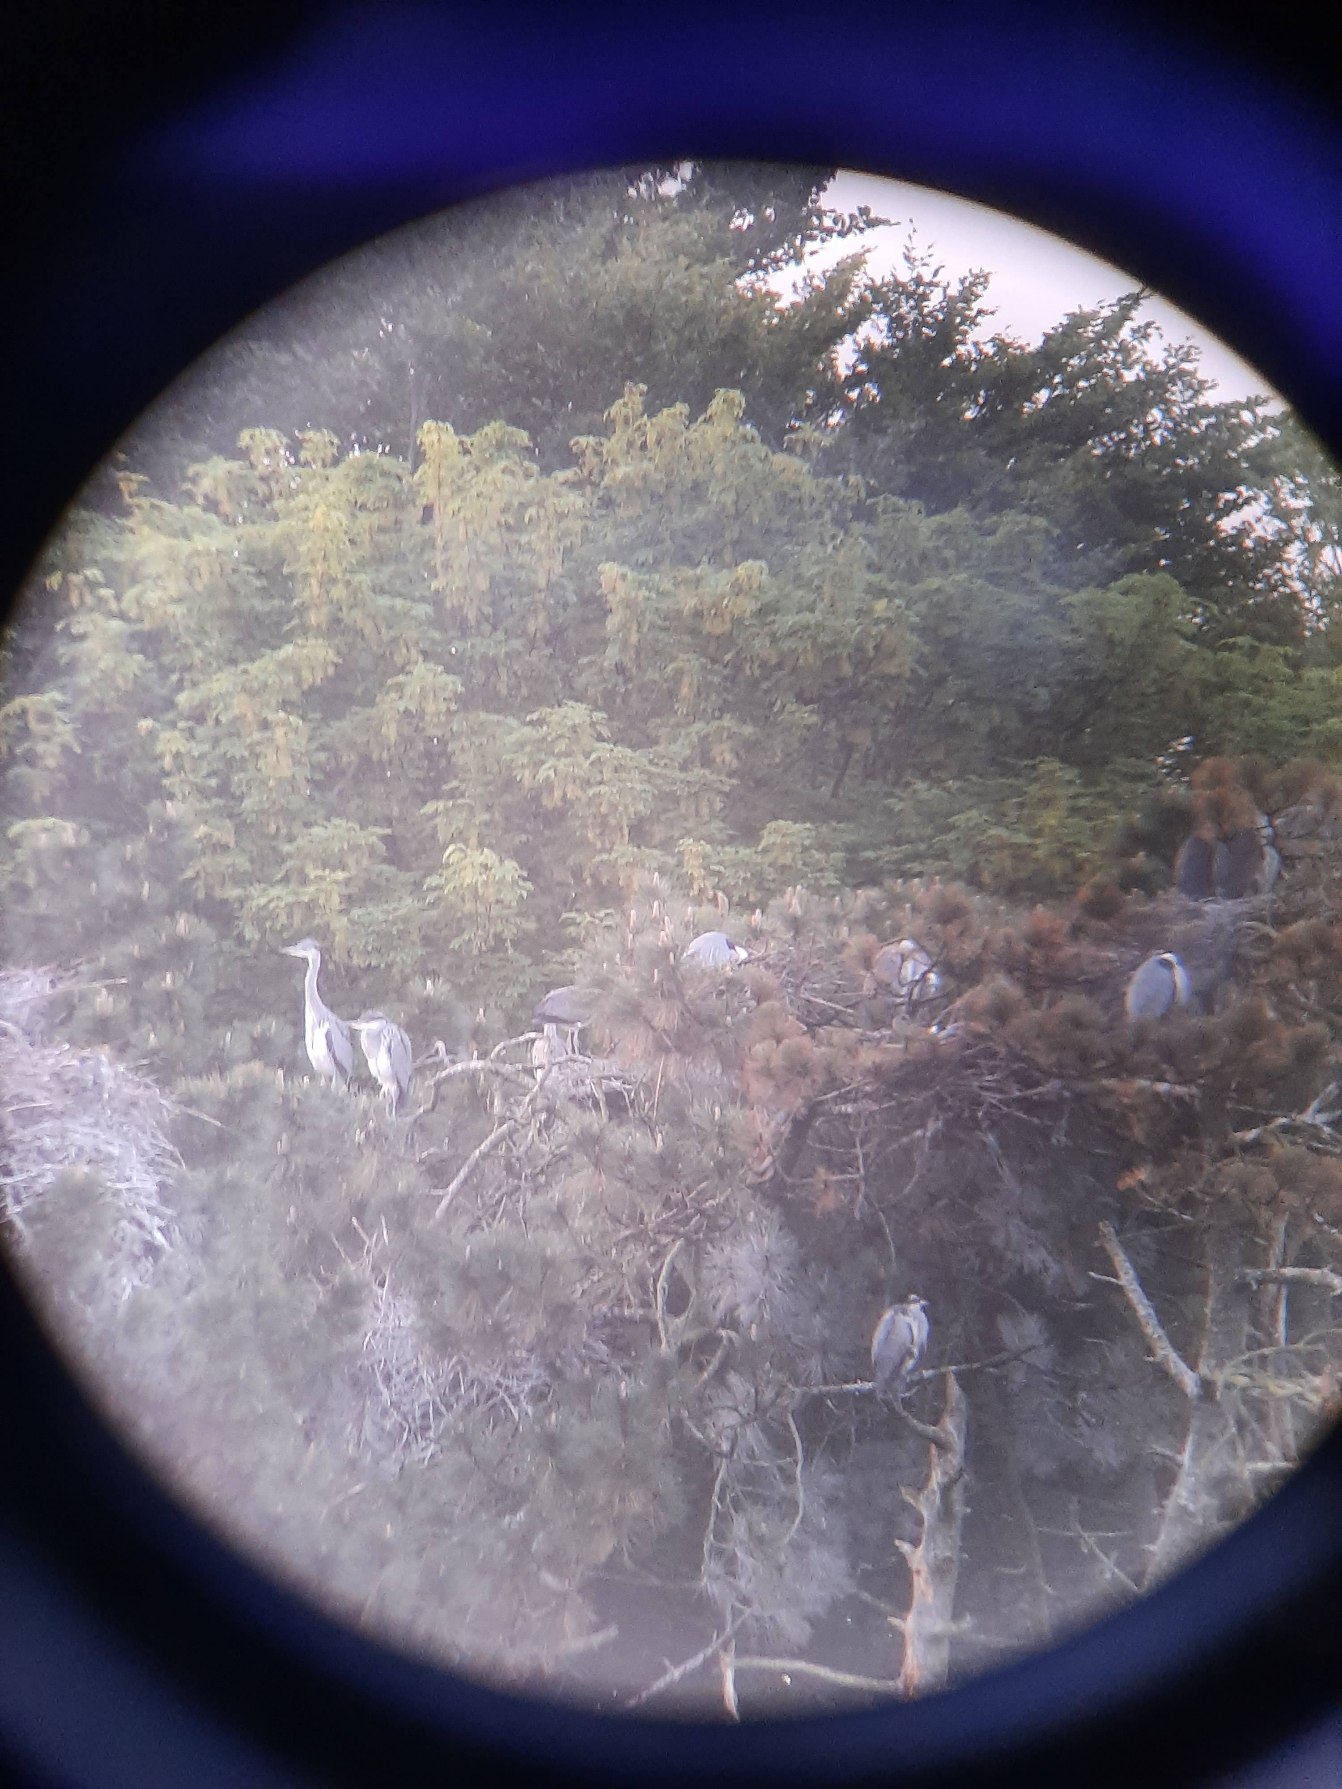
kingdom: Animalia
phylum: Chordata
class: Aves
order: Pelecaniformes
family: Ardeidae
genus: Ardea
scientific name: Ardea cinerea
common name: Fiskehejre
